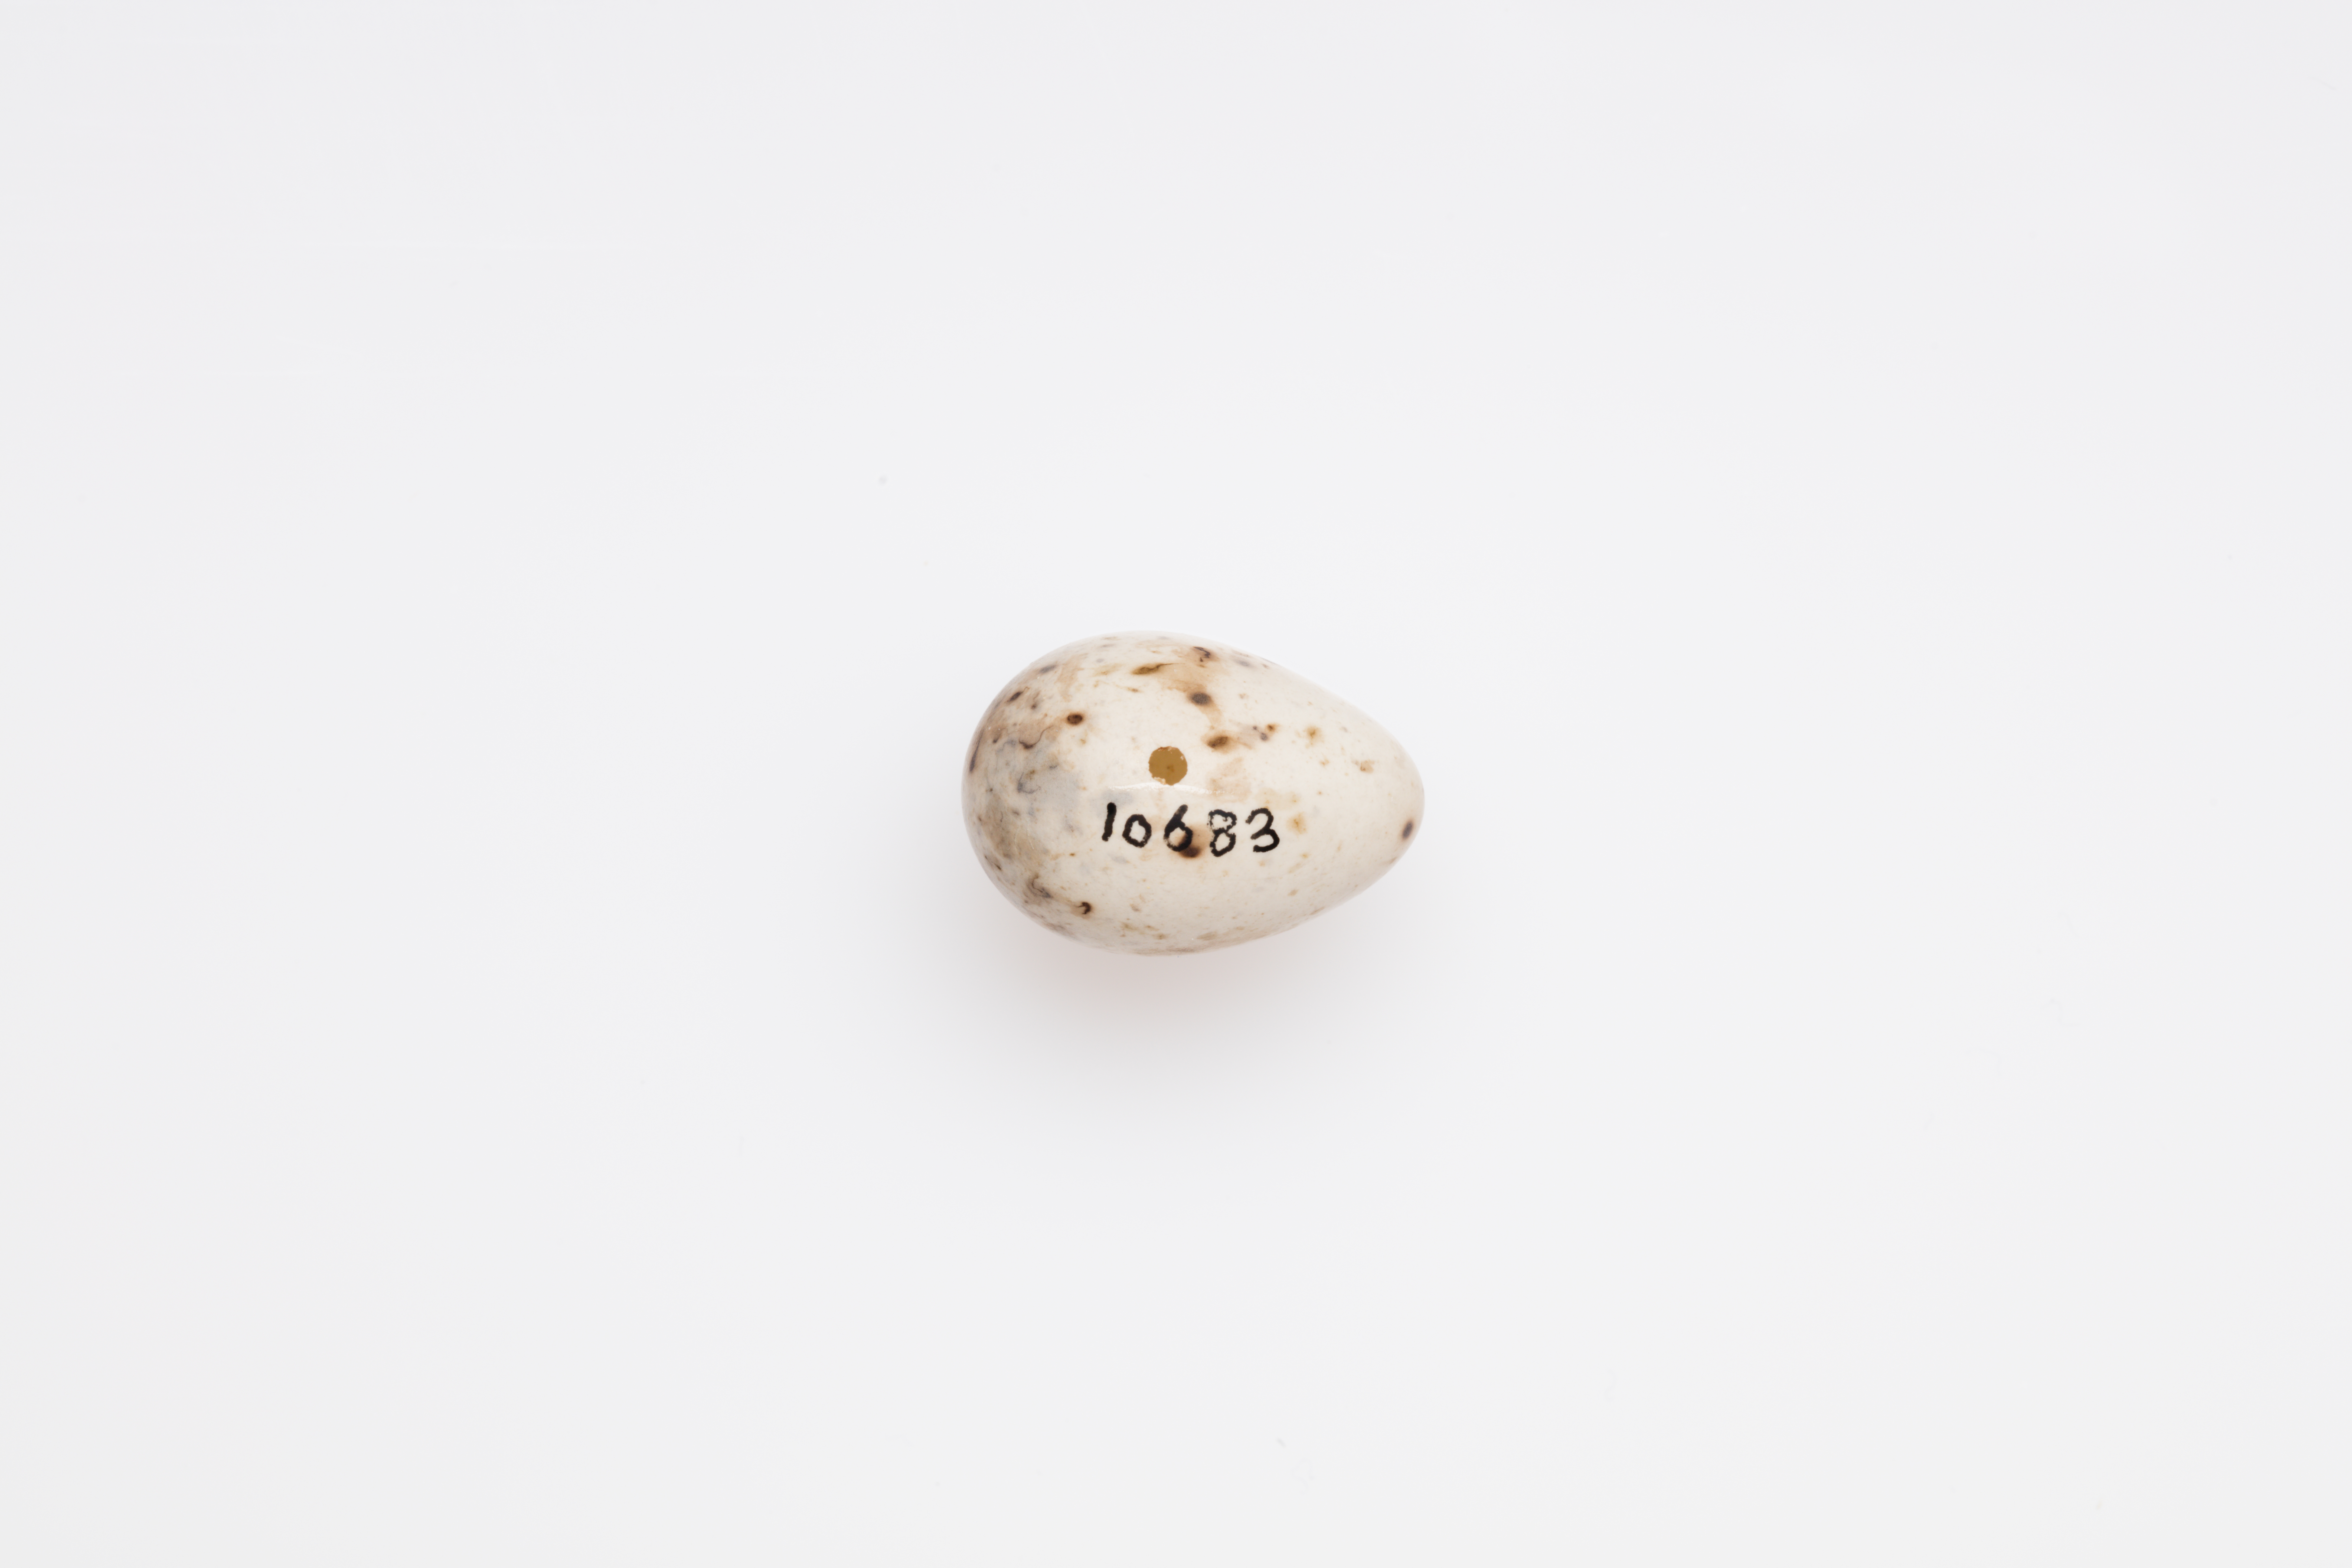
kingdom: Animalia
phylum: Chordata
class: Aves
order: Passeriformes
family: Sylviidae
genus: Sylvia
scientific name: Sylvia borin
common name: Garden warbler
